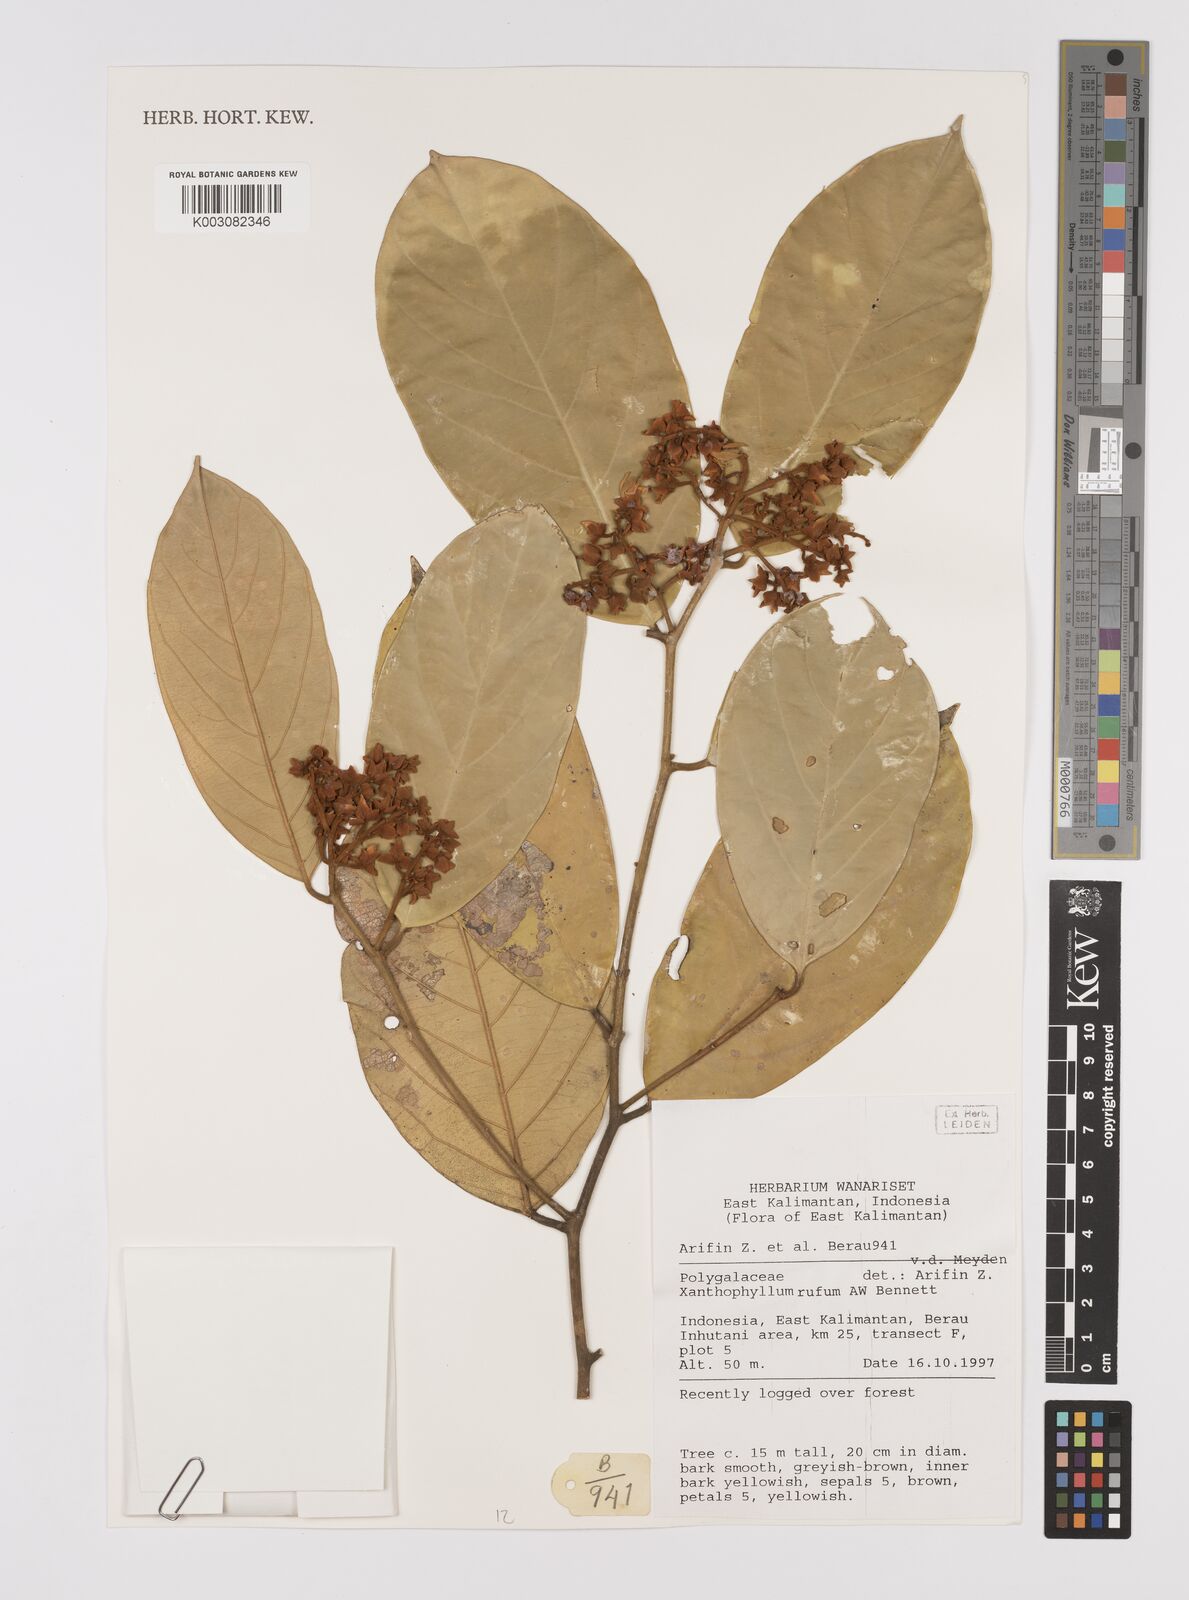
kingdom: Plantae
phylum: Tracheophyta
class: Magnoliopsida
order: Fabales
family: Polygalaceae
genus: Xanthophyllum
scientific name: Xanthophyllum rufum
